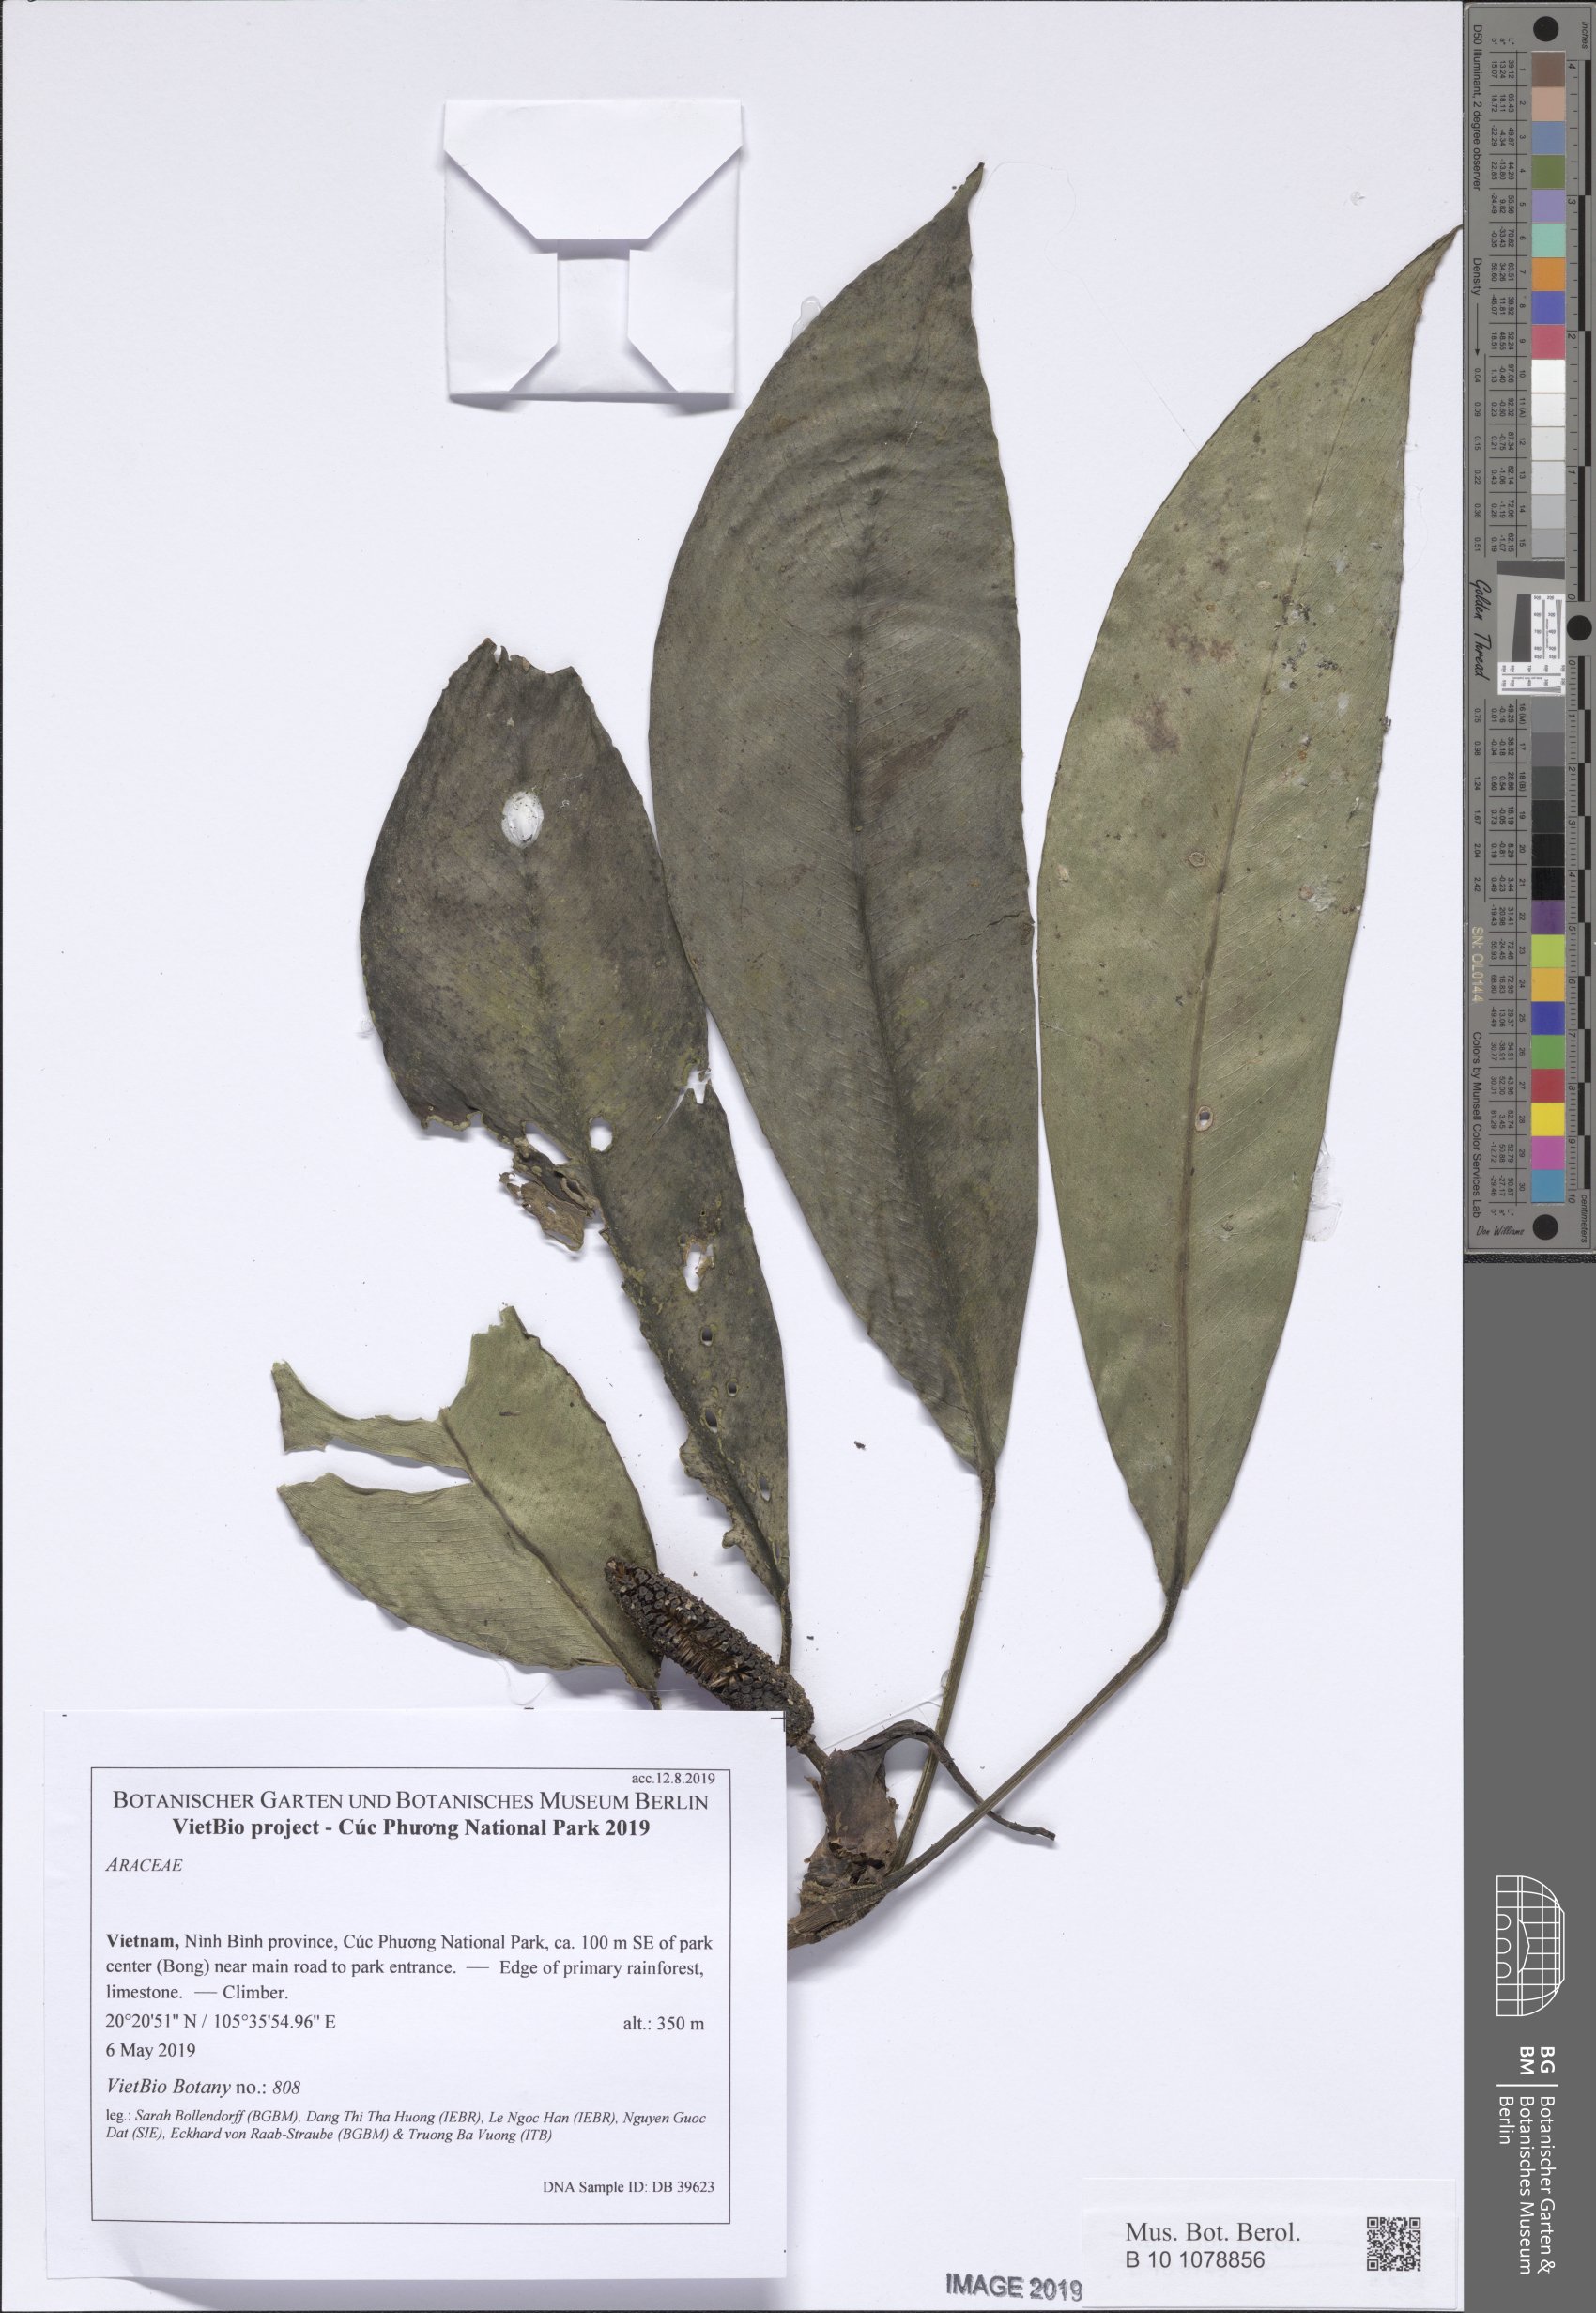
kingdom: Plantae
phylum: Tracheophyta
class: Liliopsida
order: Alismatales
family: Araceae
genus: Rhaphidophora
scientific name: Rhaphidophora bonii
